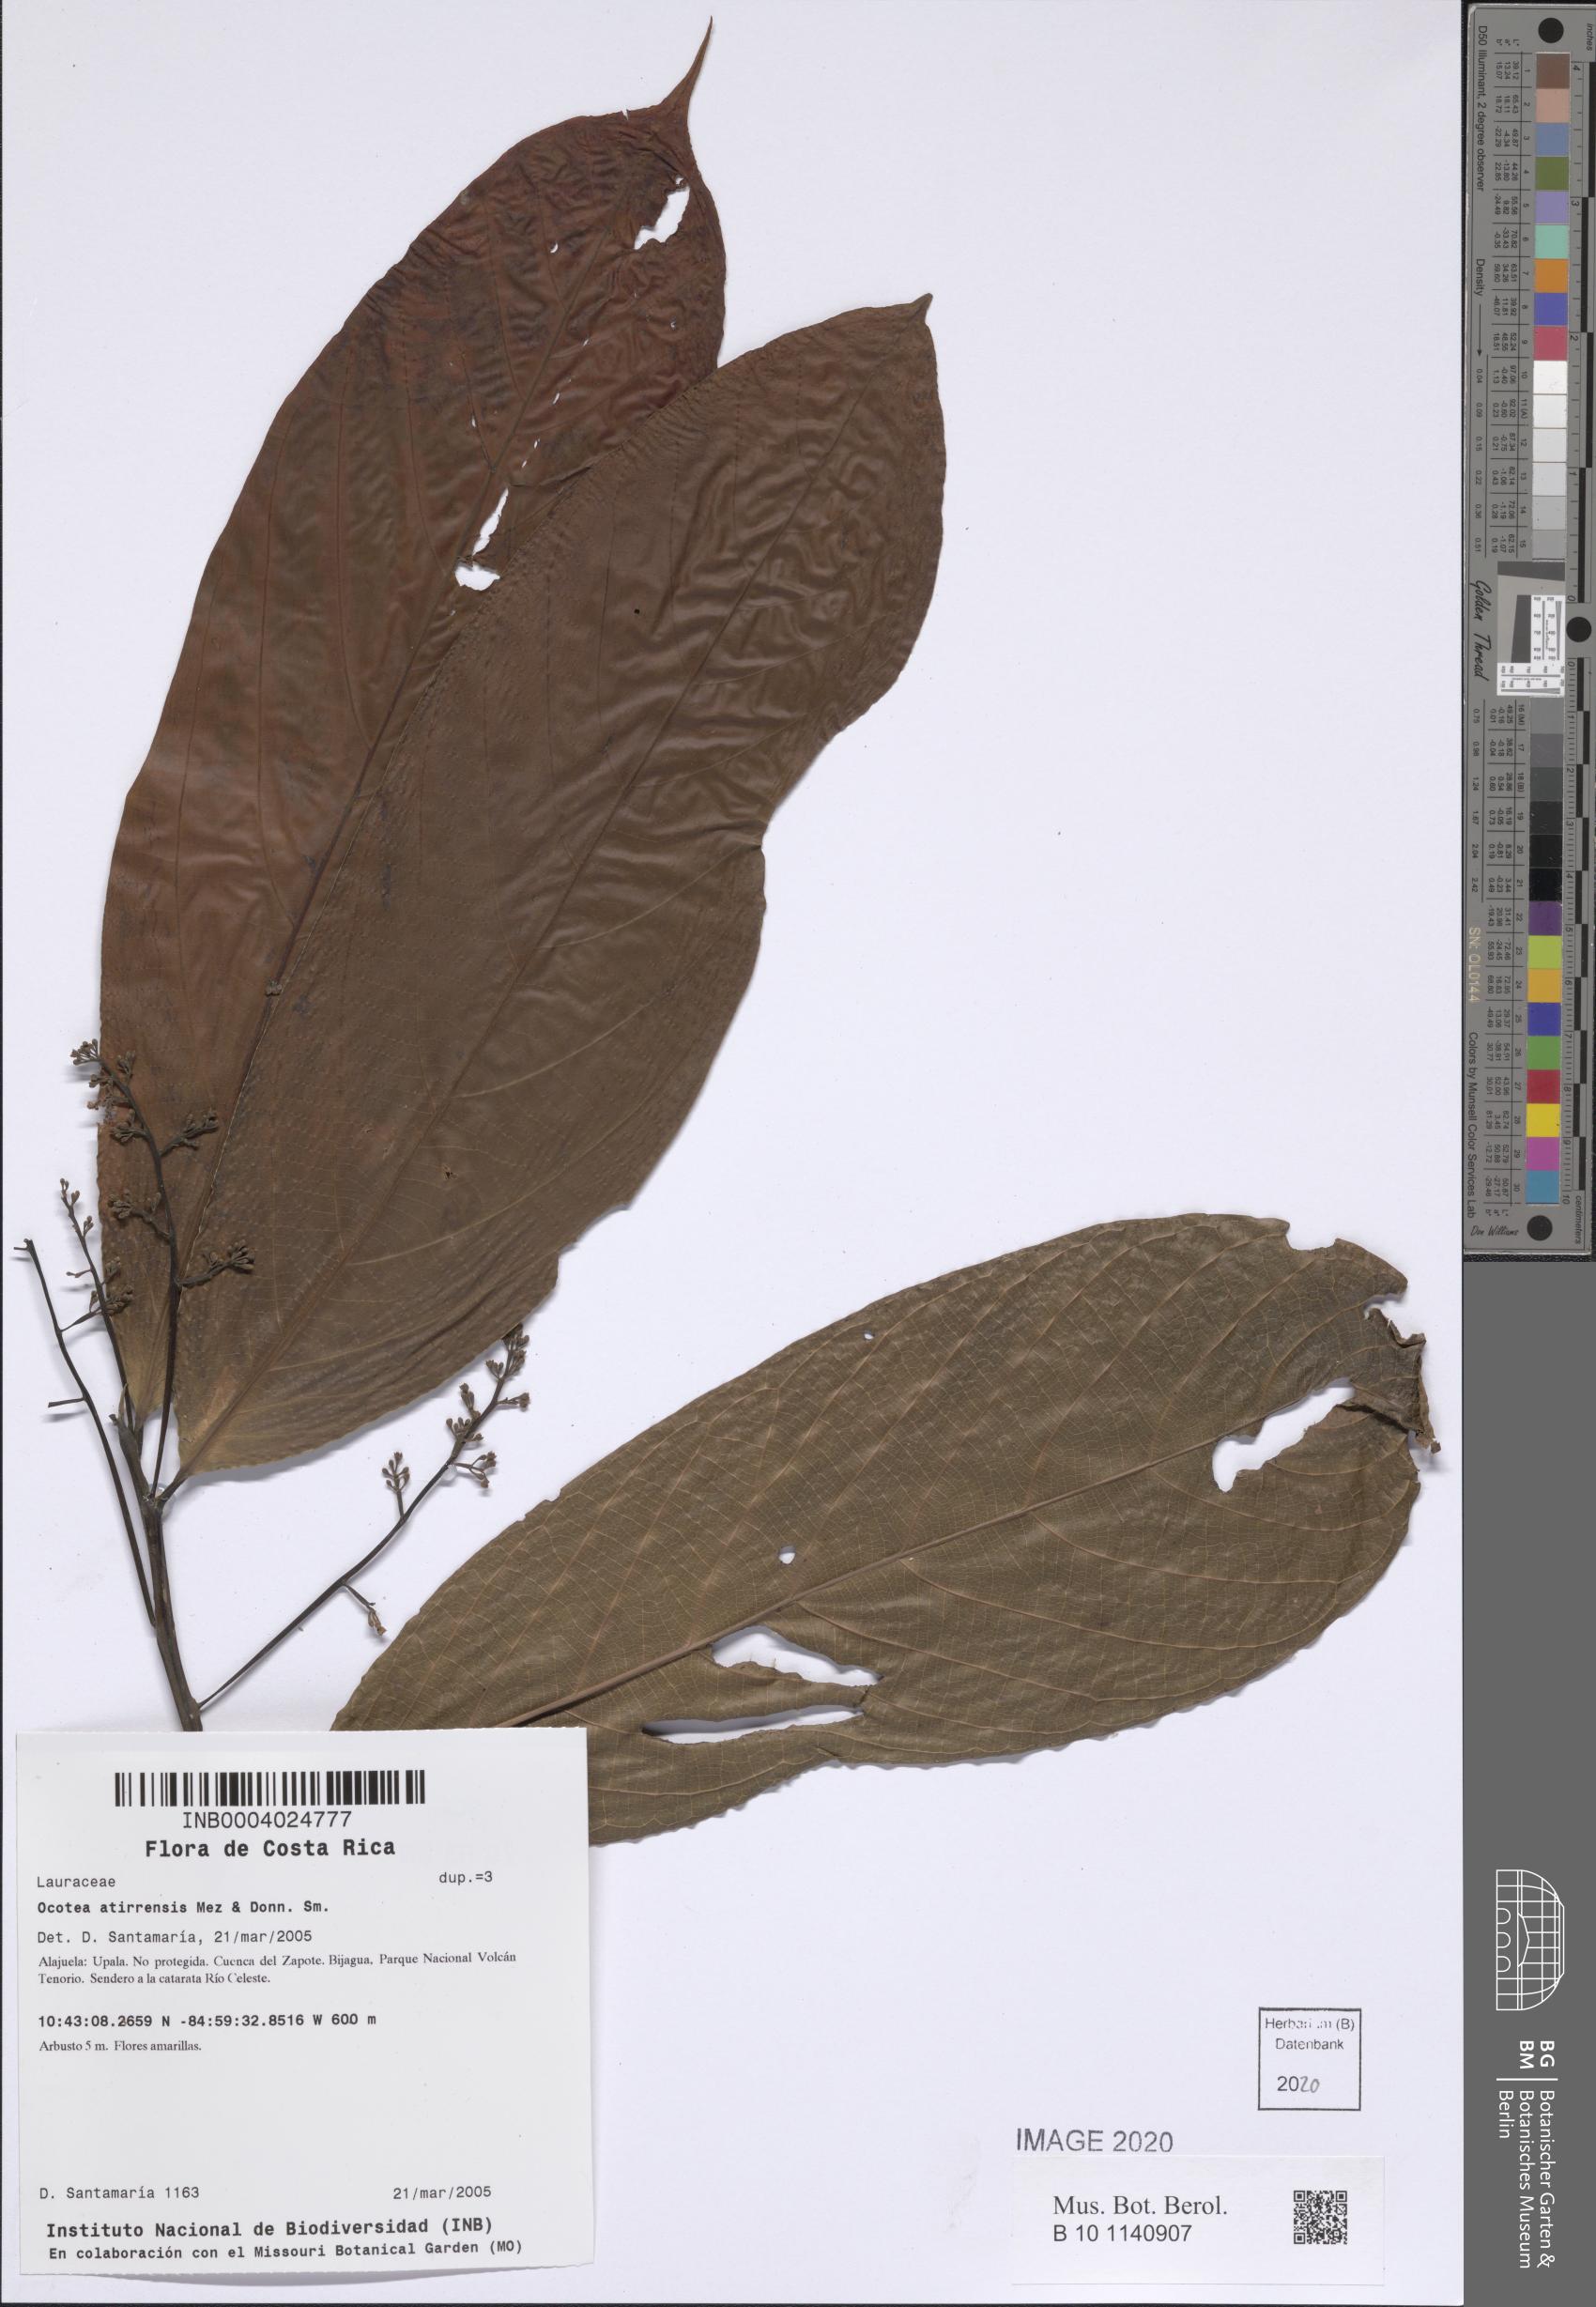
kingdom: Plantae
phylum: Tracheophyta
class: Magnoliopsida
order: Laurales
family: Lauraceae
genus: Ocotea
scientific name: Ocotea atirrensis
